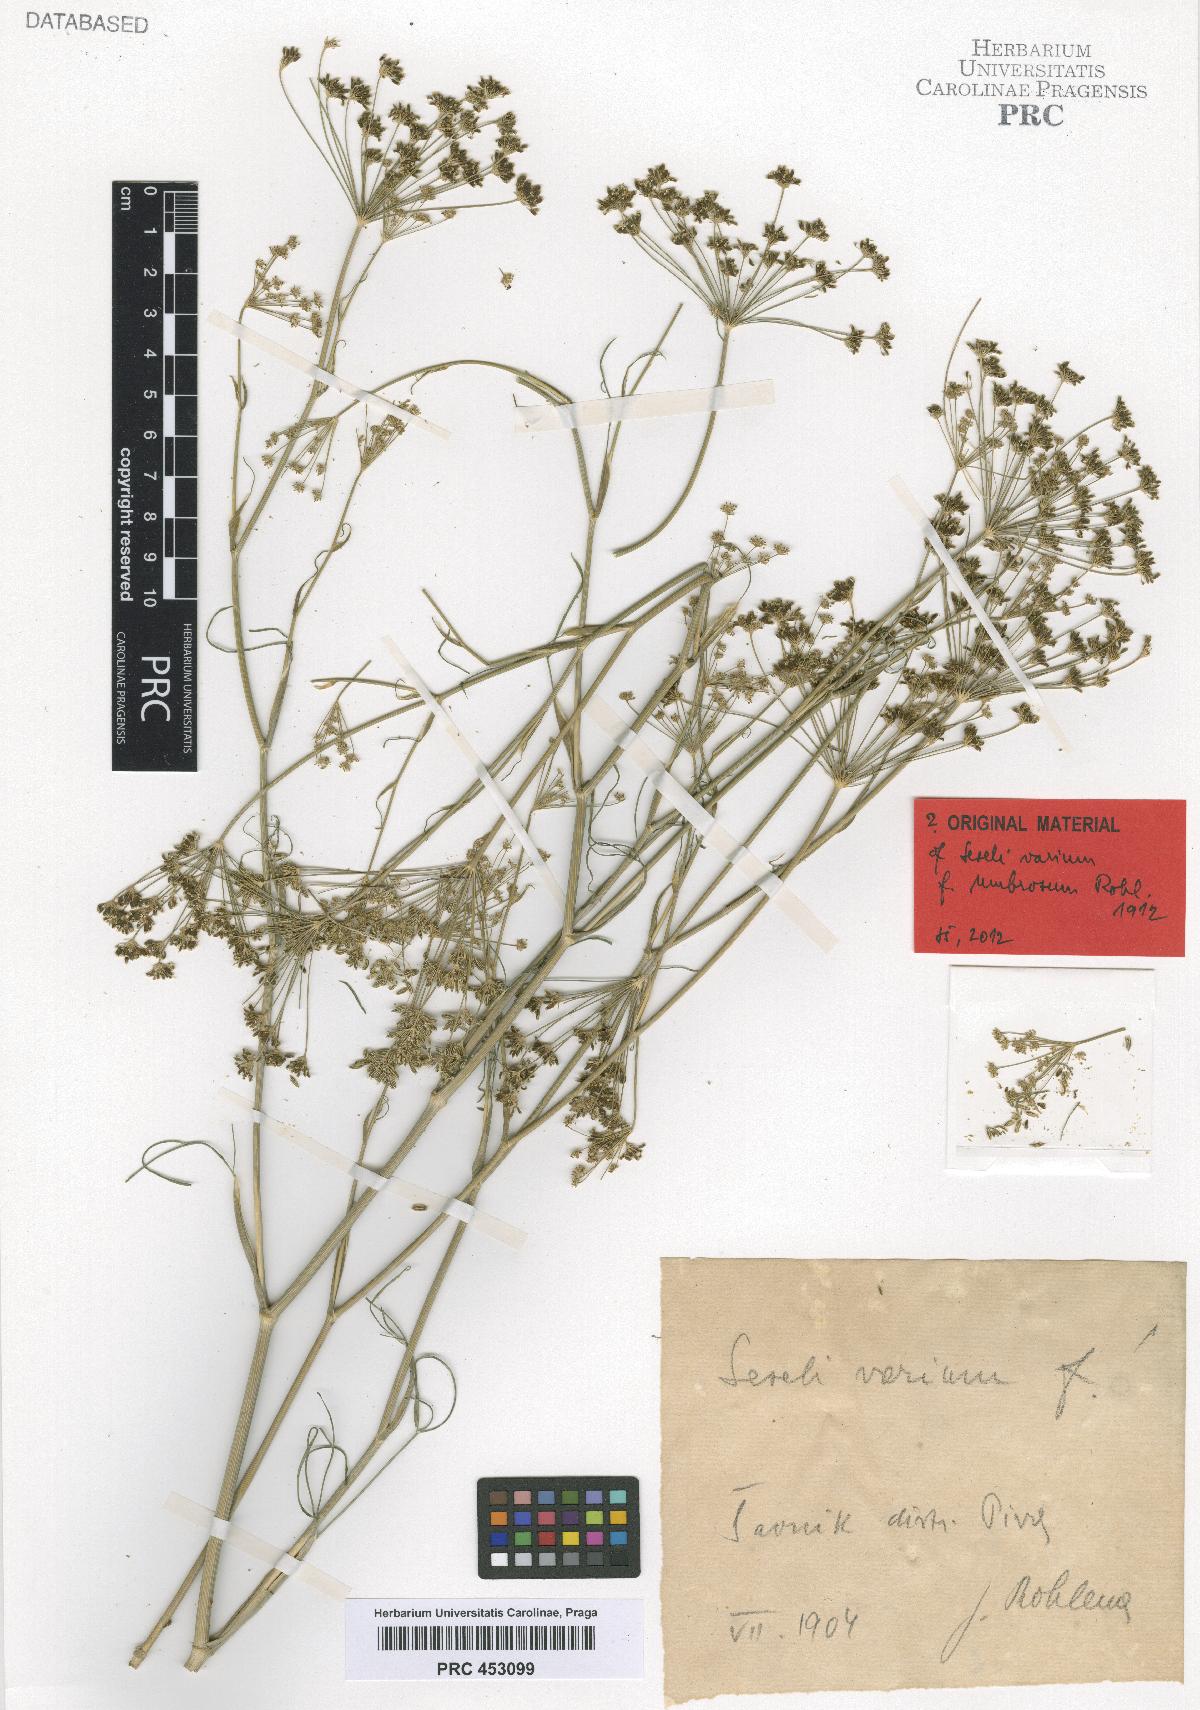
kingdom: Plantae
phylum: Tracheophyta
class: Magnoliopsida
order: Apiales
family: Apiaceae
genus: Seseli
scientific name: Seseli pallasii
